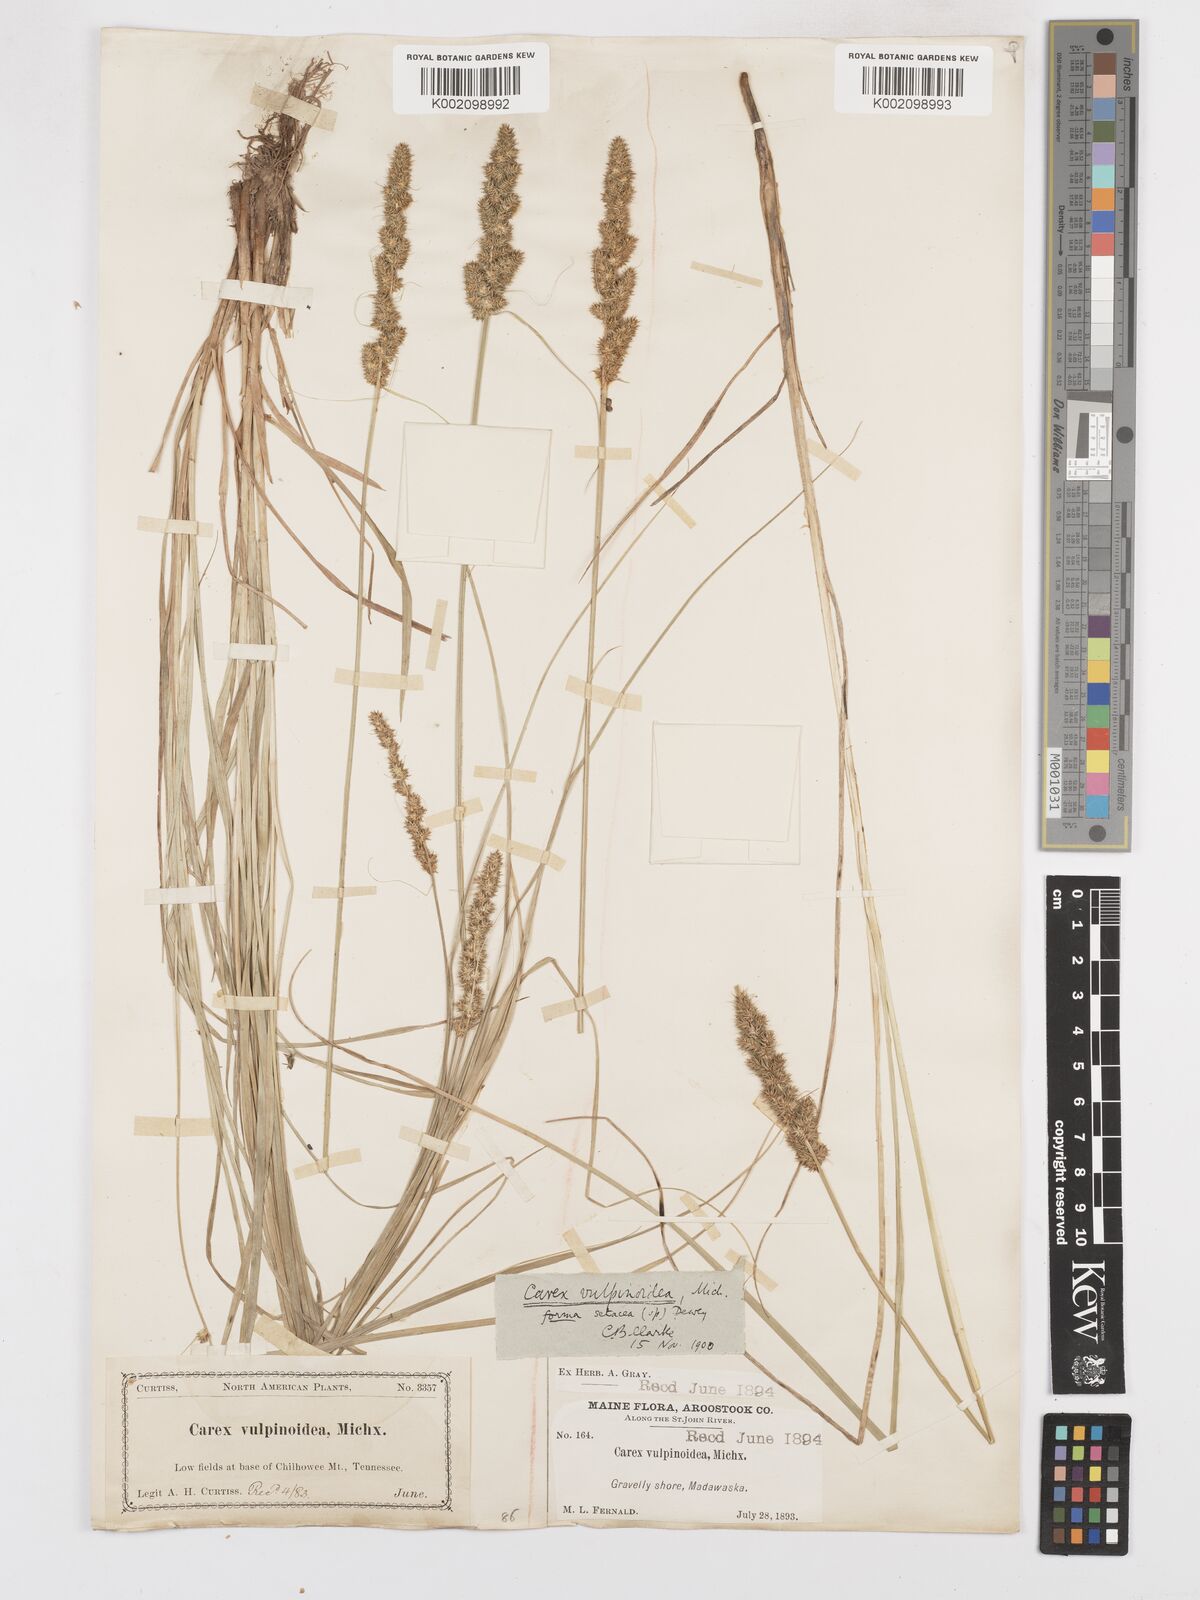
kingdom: Plantae
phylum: Tracheophyta
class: Liliopsida
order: Poales
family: Cyperaceae
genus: Carex
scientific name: Carex vulpinoidea
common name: American fox-sedge
